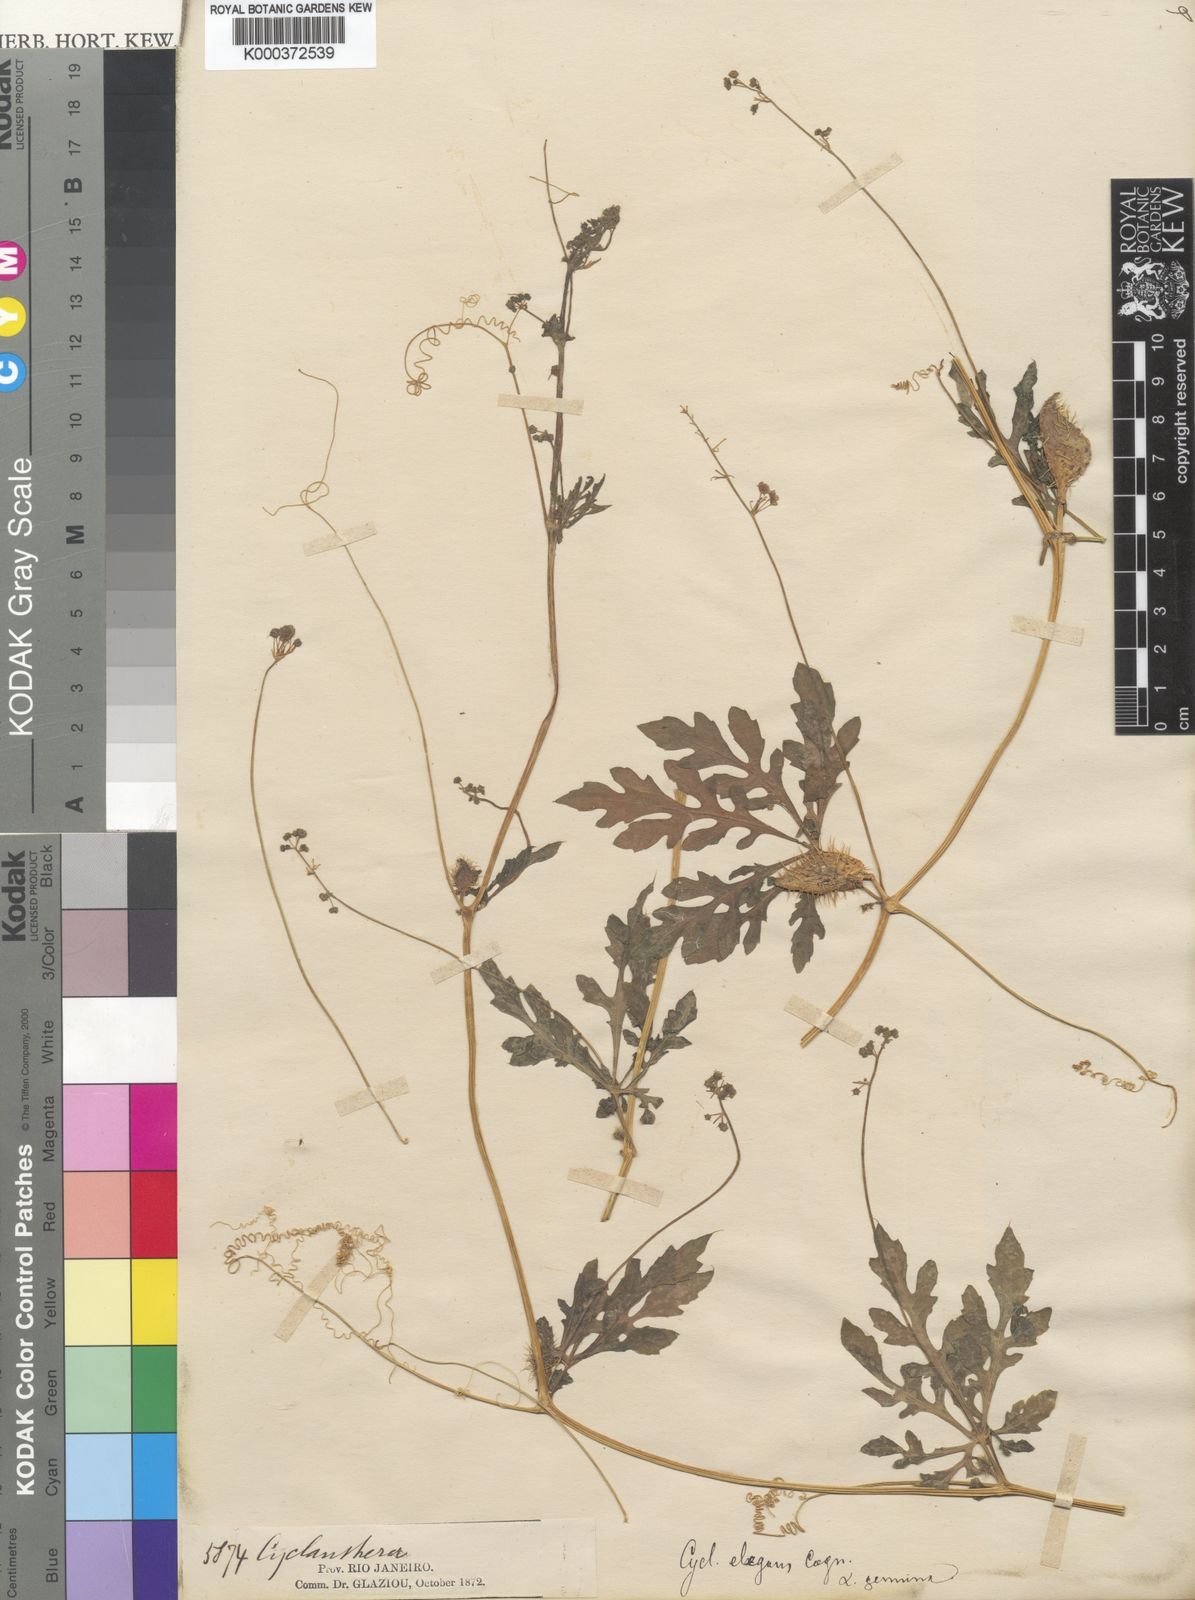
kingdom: Plantae
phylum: Tracheophyta
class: Magnoliopsida
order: Cucurbitales
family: Cucurbitaceae
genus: Cyclanthera
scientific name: Cyclanthera tenuisepala
